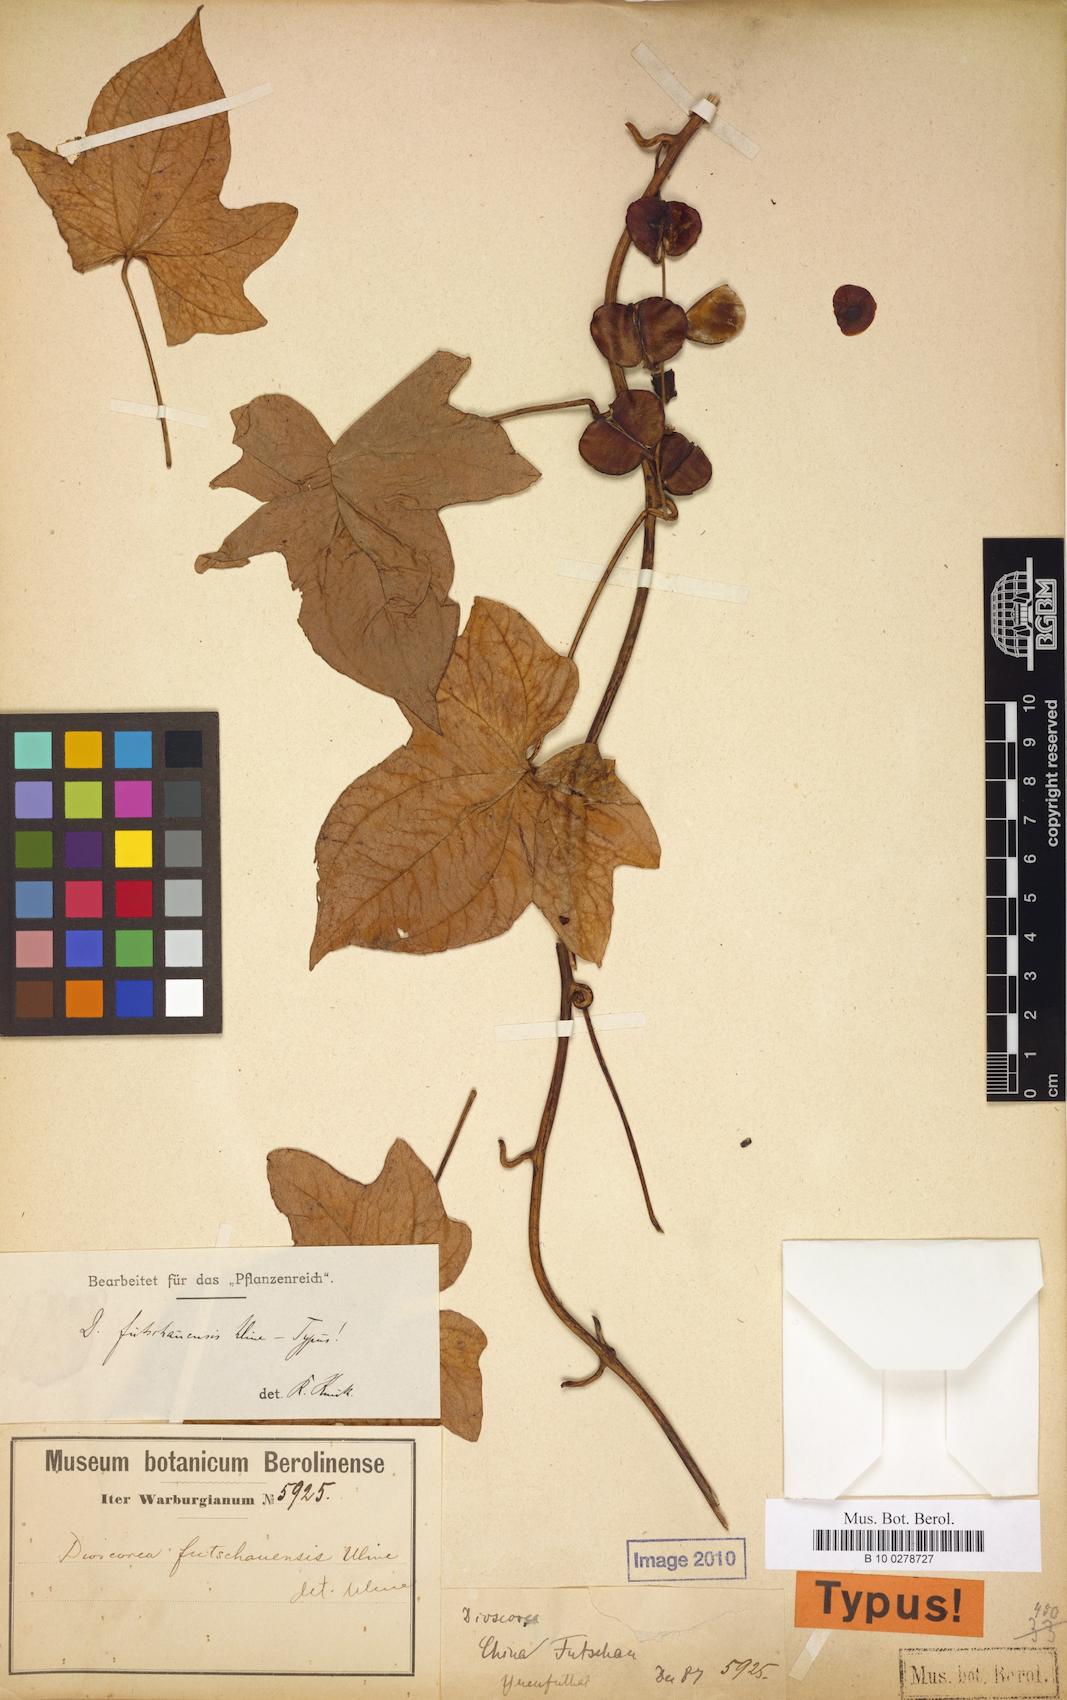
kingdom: Plantae
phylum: Tracheophyta
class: Liliopsida
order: Dioscoreales
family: Dioscoreaceae
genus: Dioscorea
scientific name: Dioscorea futschauensis
